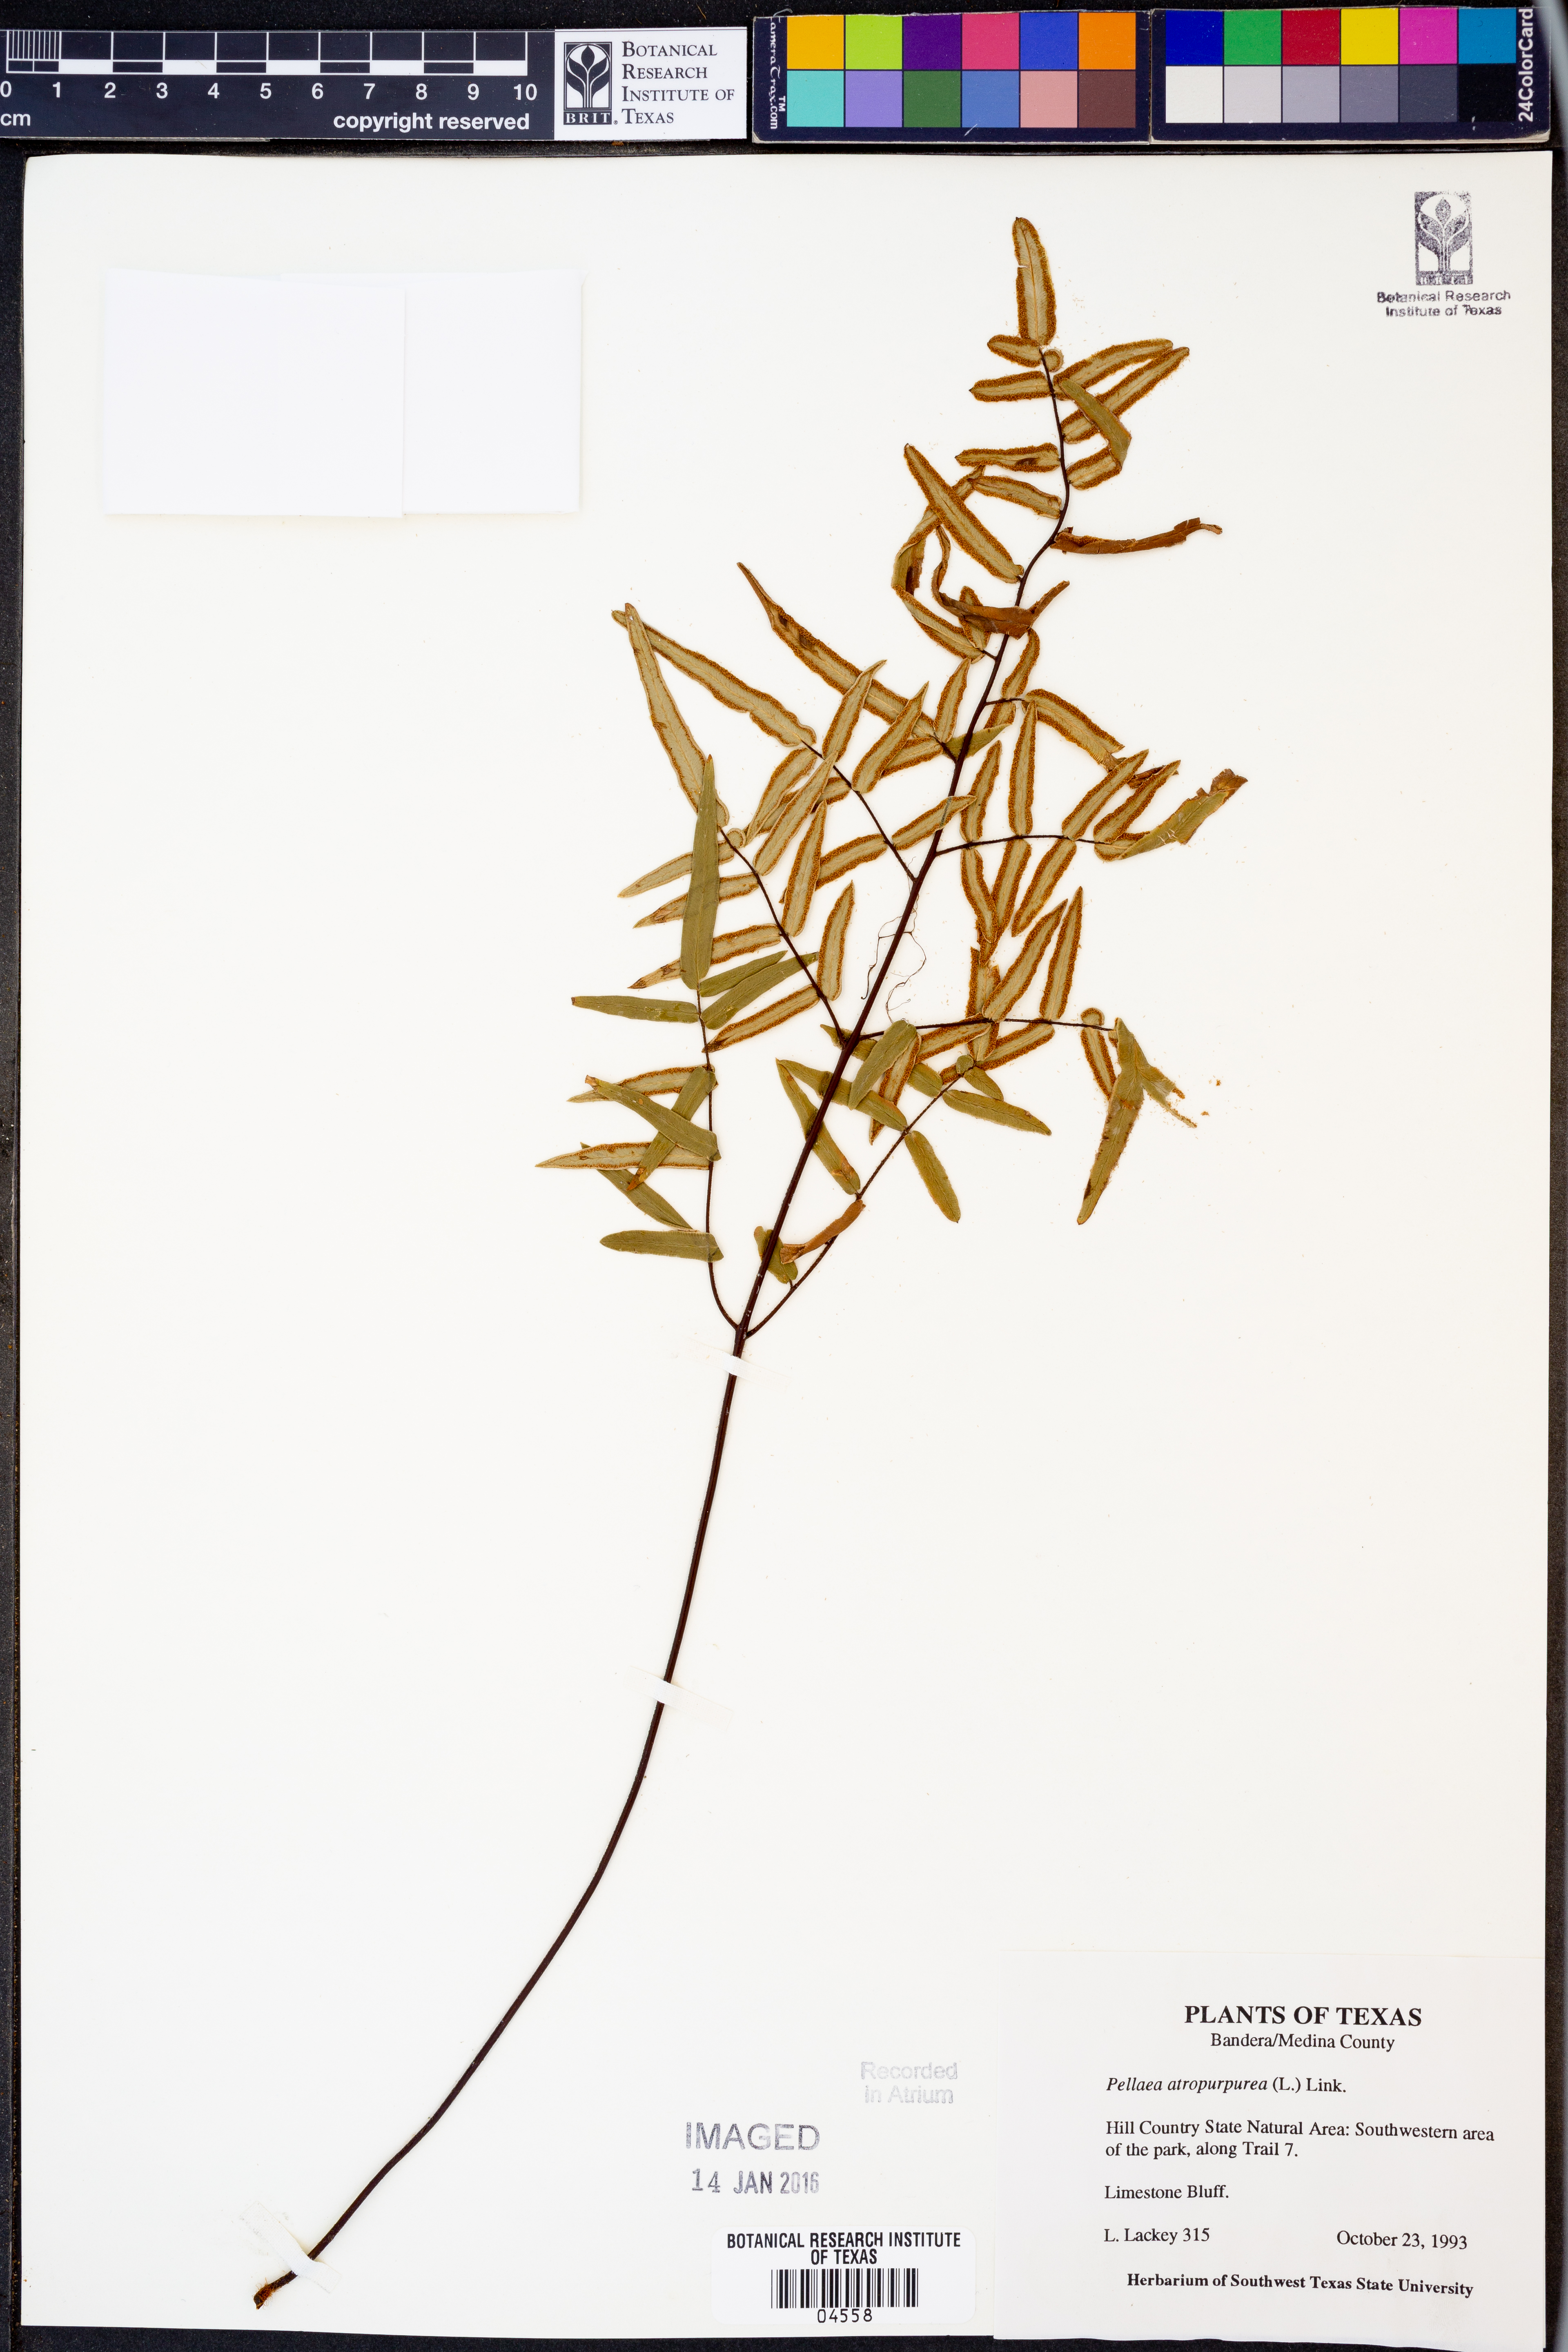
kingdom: Plantae
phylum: Tracheophyta
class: Polypodiopsida
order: Polypodiales
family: Pteridaceae
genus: Pellaea
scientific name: Pellaea atropurpurea
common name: Hairy cliffbrake
